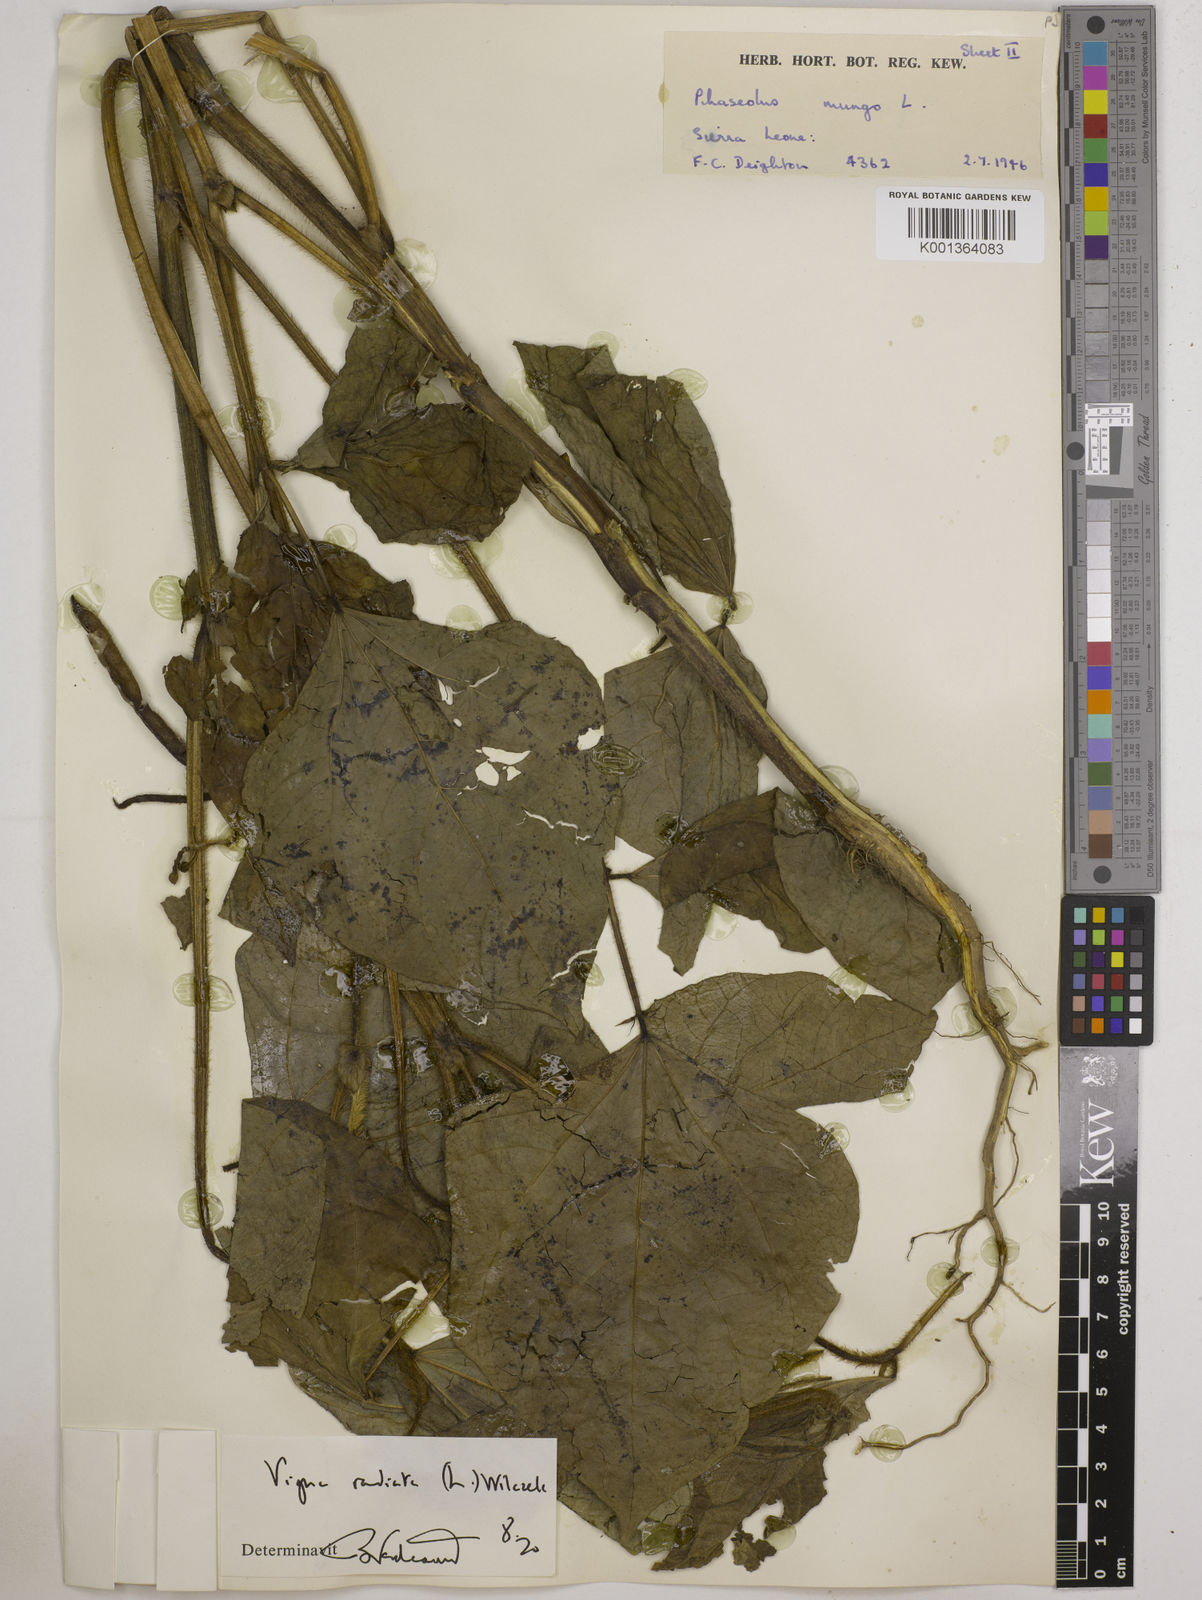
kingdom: Plantae
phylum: Tracheophyta
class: Magnoliopsida
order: Fabales
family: Fabaceae
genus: Vigna
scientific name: Vigna radiata
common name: Mung-bean
